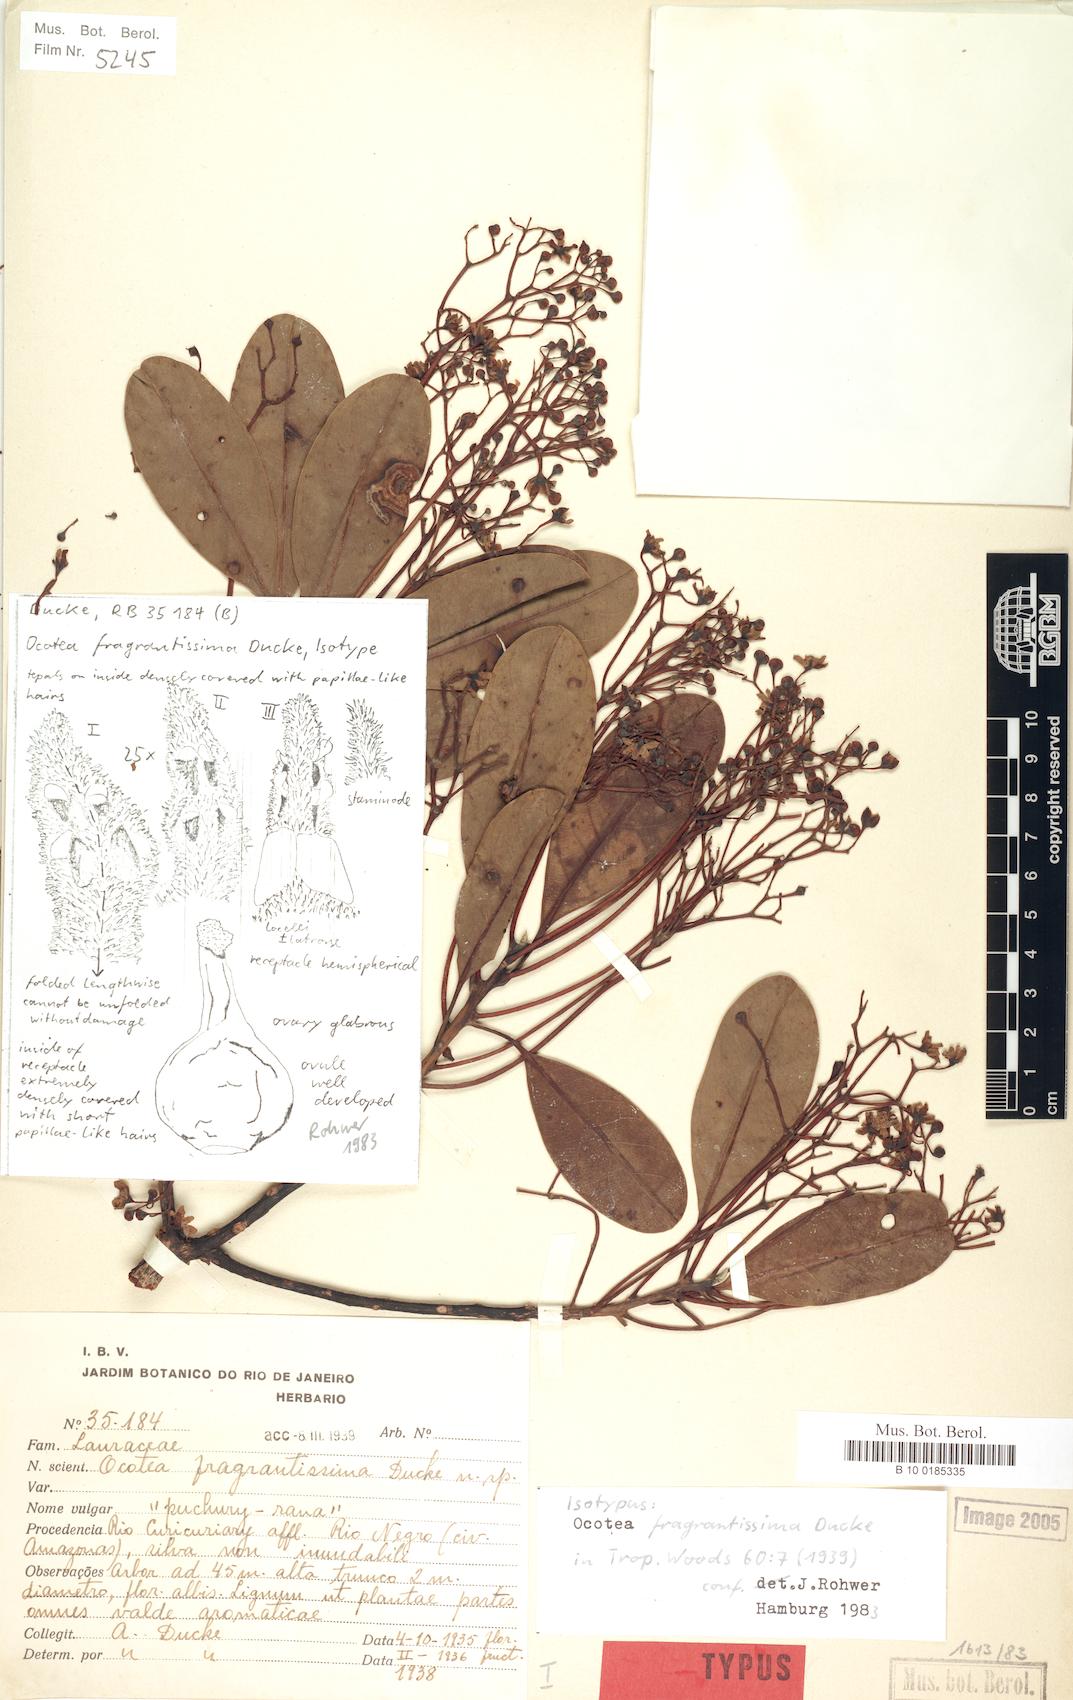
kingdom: Plantae
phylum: Tracheophyta
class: Magnoliopsida
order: Laurales
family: Lauraceae
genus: Mespilodaphne
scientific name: Mespilodaphne fragrantissima
